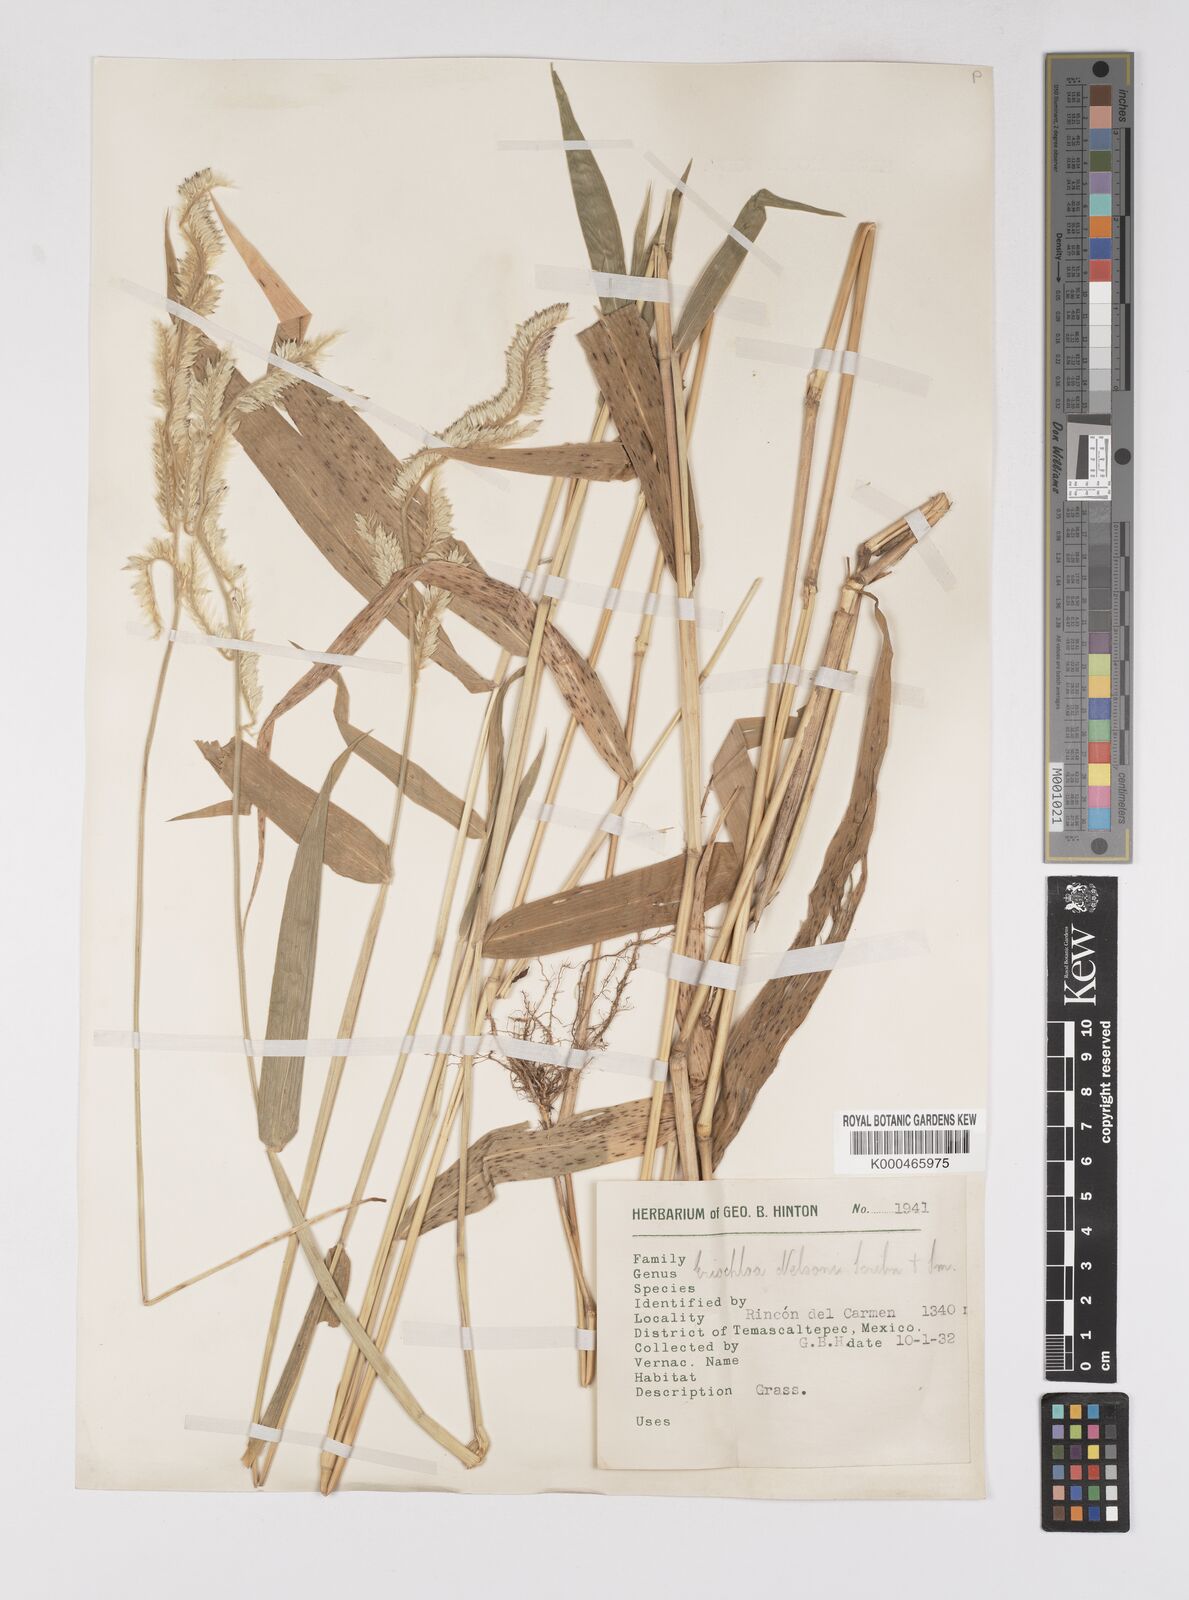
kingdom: Plantae
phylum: Tracheophyta
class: Liliopsida
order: Poales
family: Poaceae
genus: Eriochloa
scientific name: Eriochloa nelsonii
